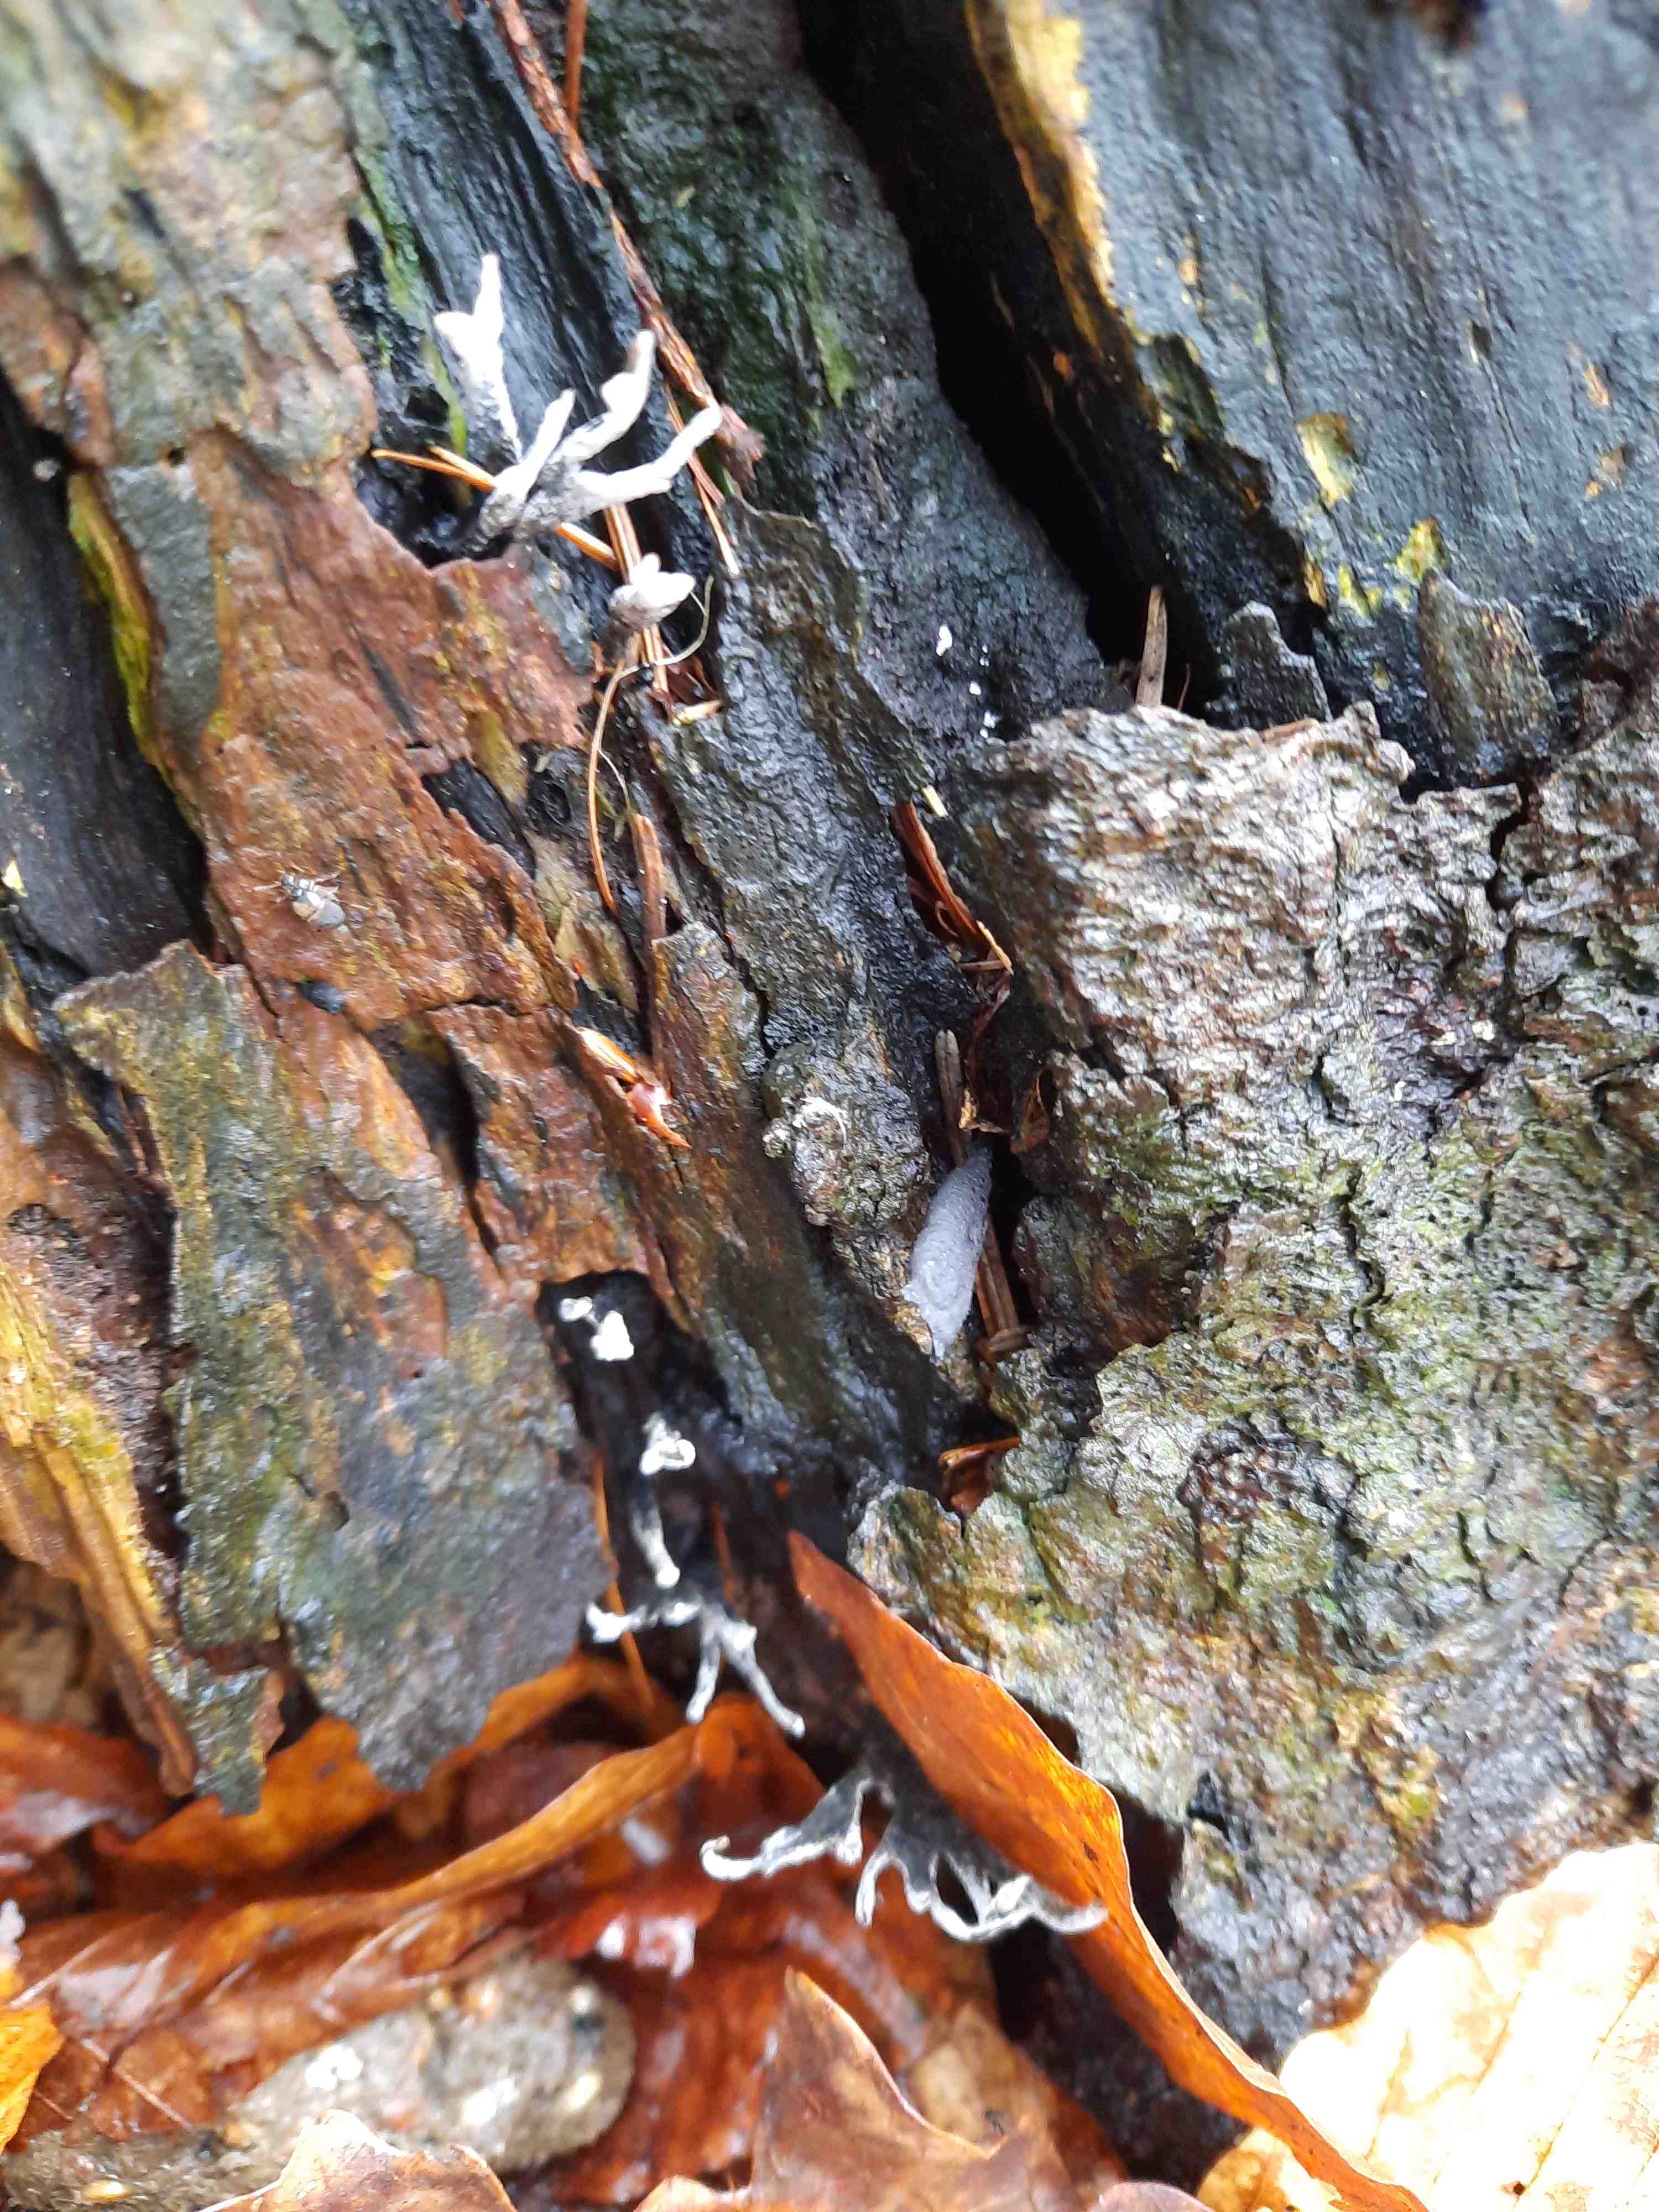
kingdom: Fungi
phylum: Ascomycota
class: Sordariomycetes
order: Xylariales
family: Xylariaceae
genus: Xylaria
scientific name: Xylaria hypoxylon
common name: grenet stødsvamp
